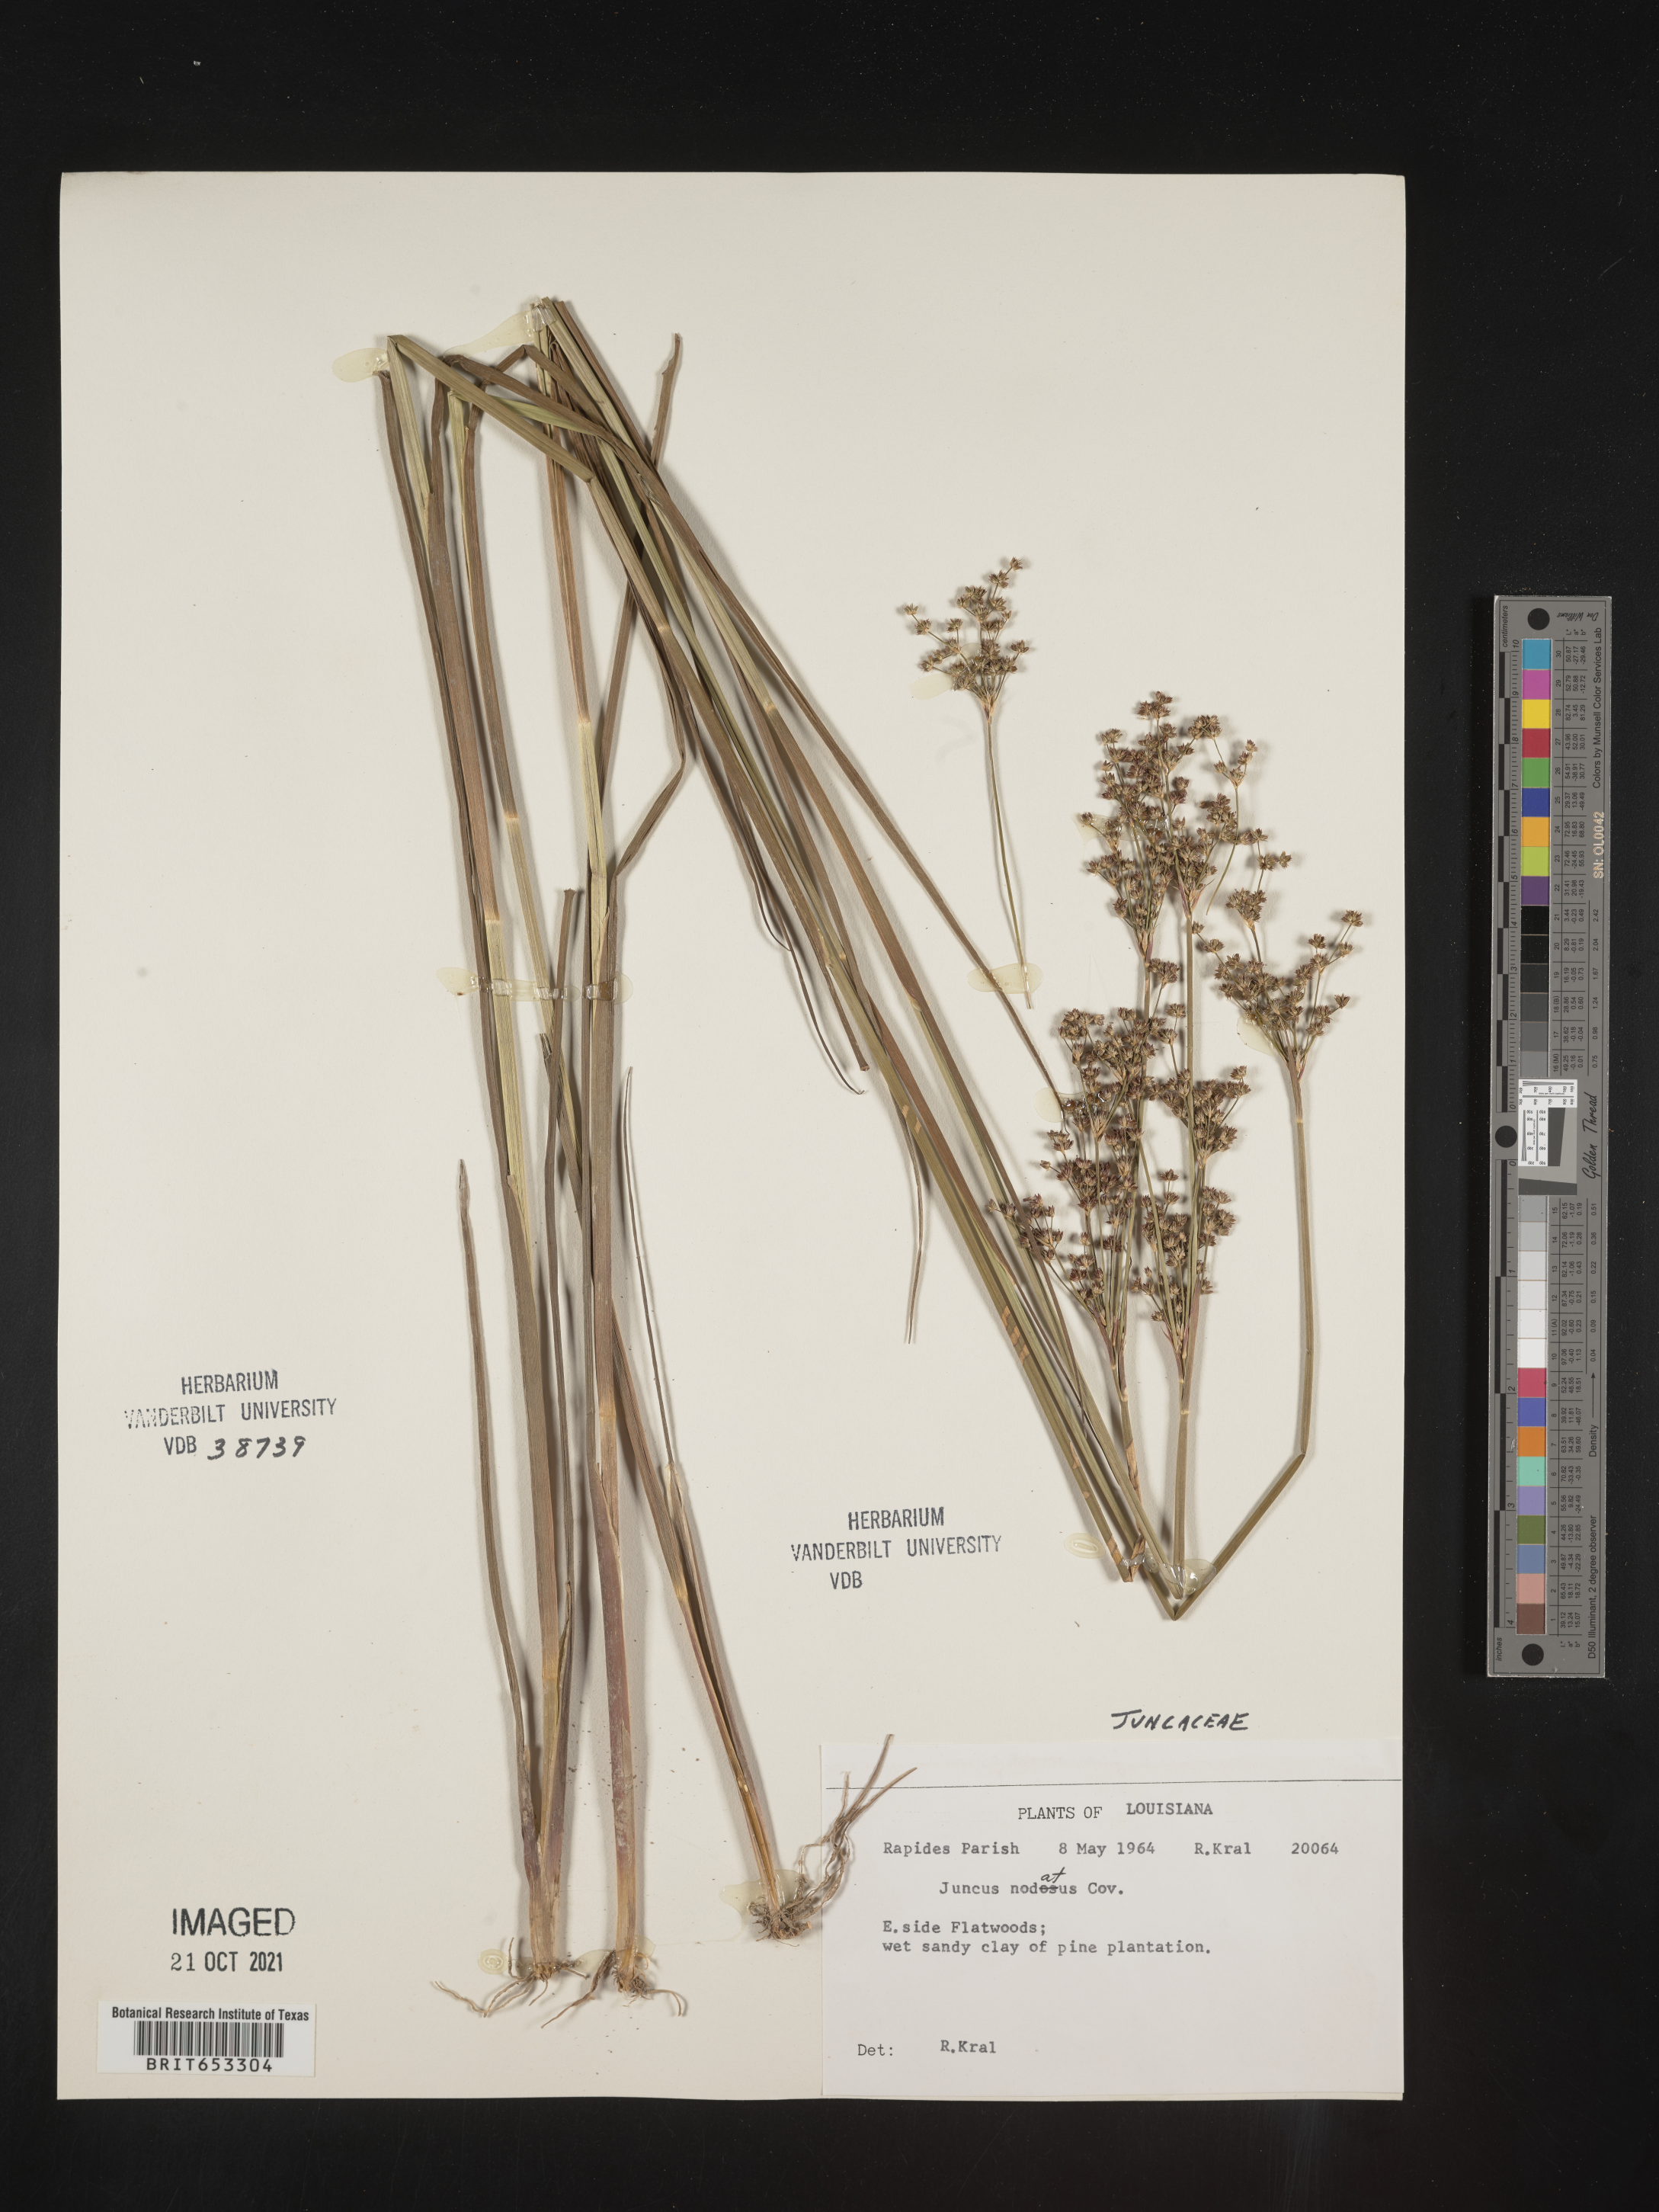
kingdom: Plantae
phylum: Tracheophyta
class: Liliopsida
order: Poales
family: Juncaceae
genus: Juncus
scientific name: Juncus nodatus
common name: Stout rush
